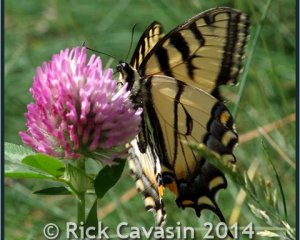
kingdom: Animalia
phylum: Arthropoda
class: Insecta
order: Lepidoptera
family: Papilionidae
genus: Pterourus
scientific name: Pterourus glaucus
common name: Eastern Tiger Swallowtail
